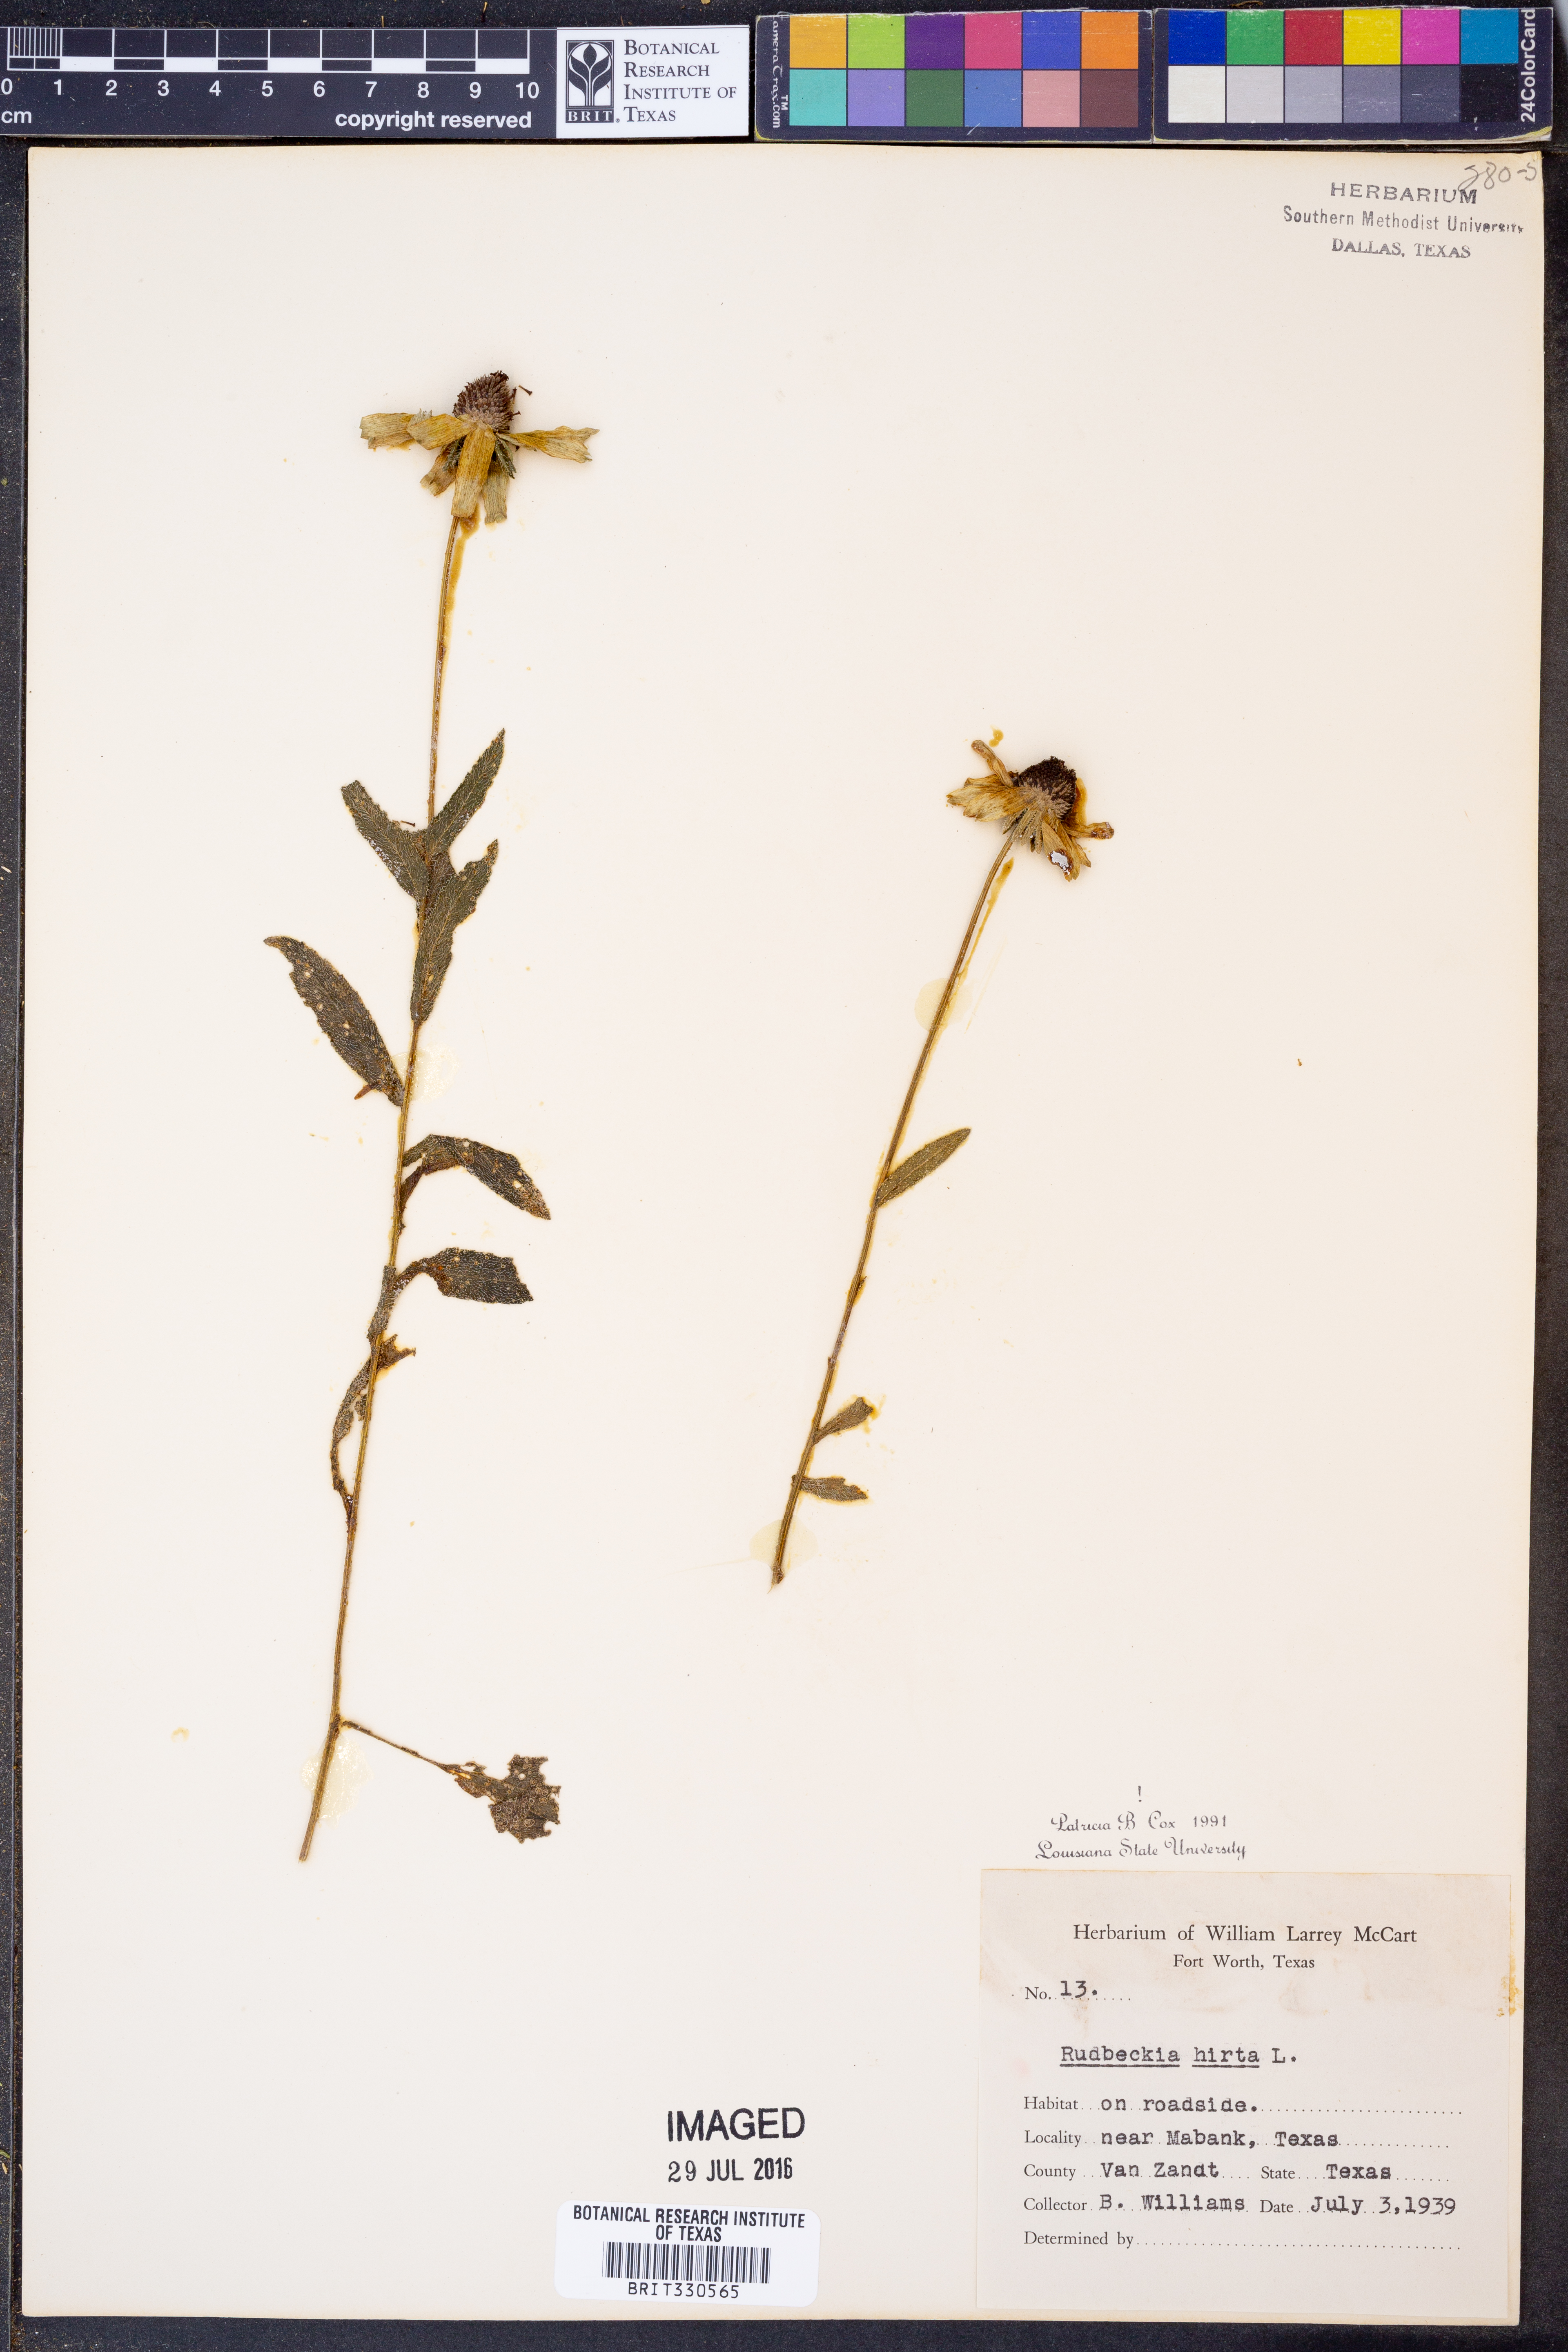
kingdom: Plantae
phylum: Tracheophyta
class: Magnoliopsida
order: Asterales
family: Asteraceae
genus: Rudbeckia
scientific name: Rudbeckia hirta
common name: Black-eyed-susan
